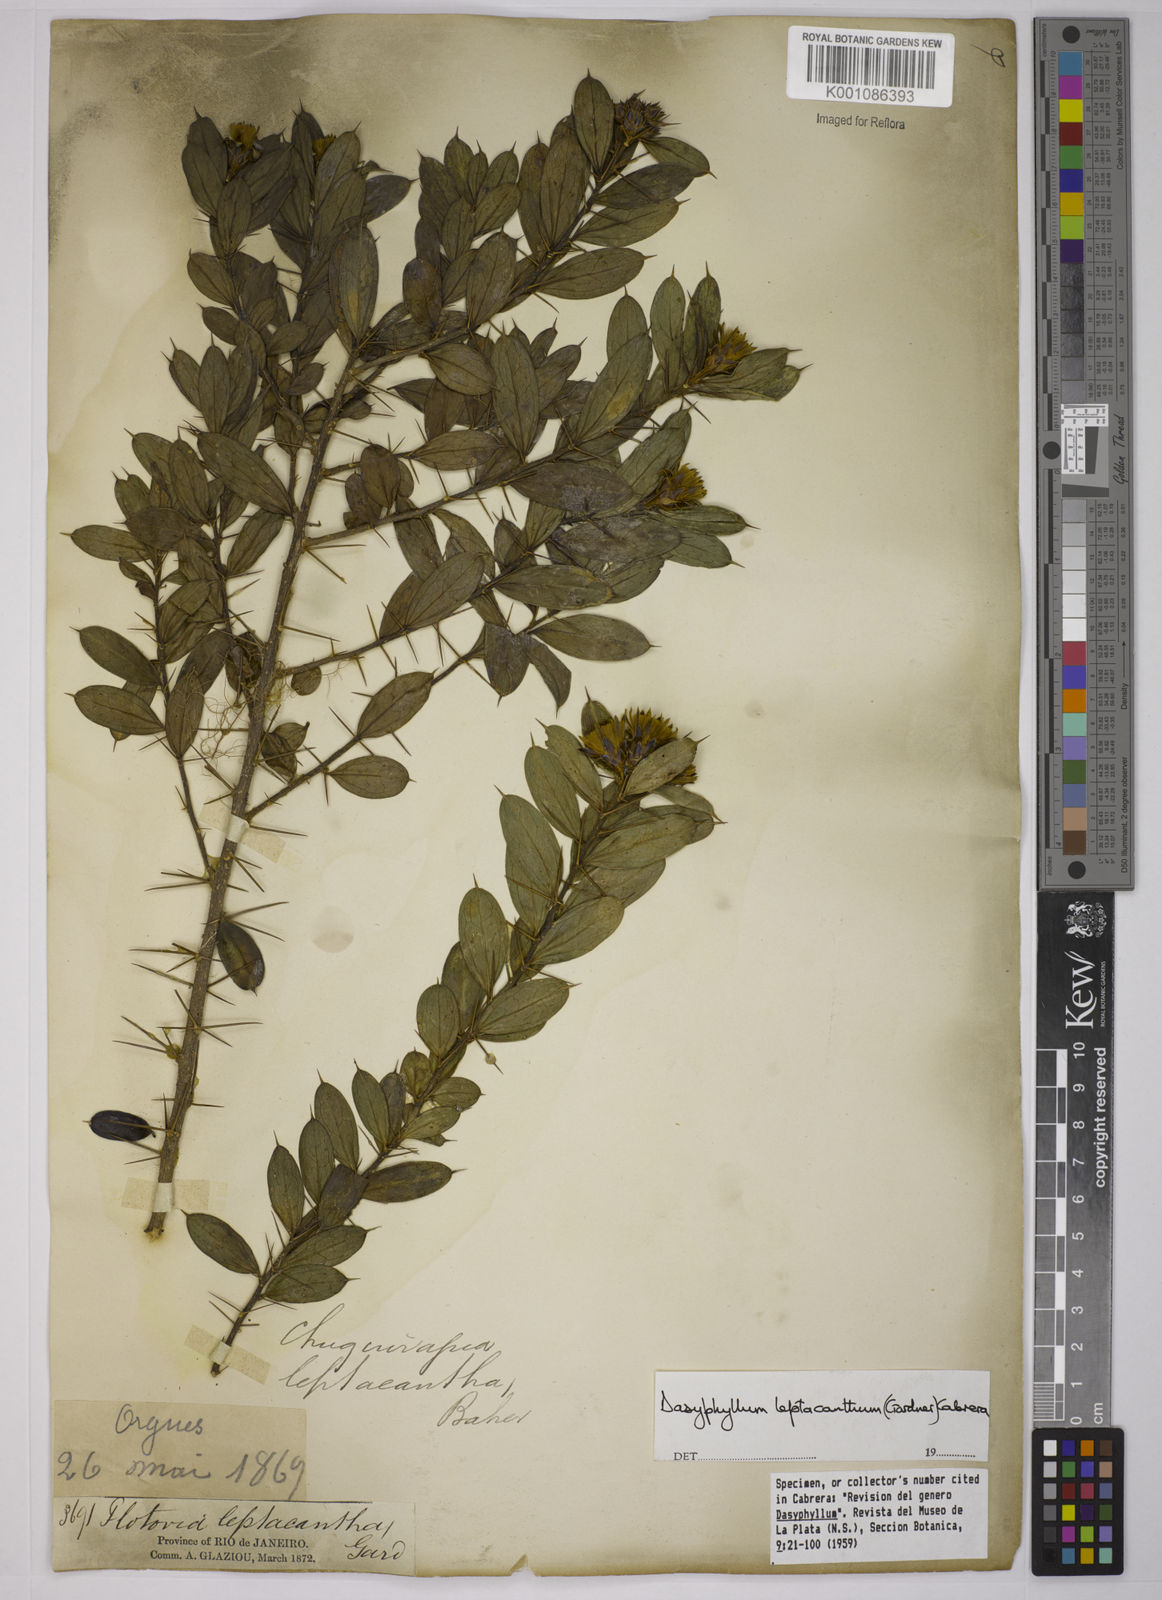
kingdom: Plantae
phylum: Tracheophyta
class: Magnoliopsida
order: Asterales
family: Asteraceae
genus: Dasyphyllum
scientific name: Dasyphyllum leptacanthum
